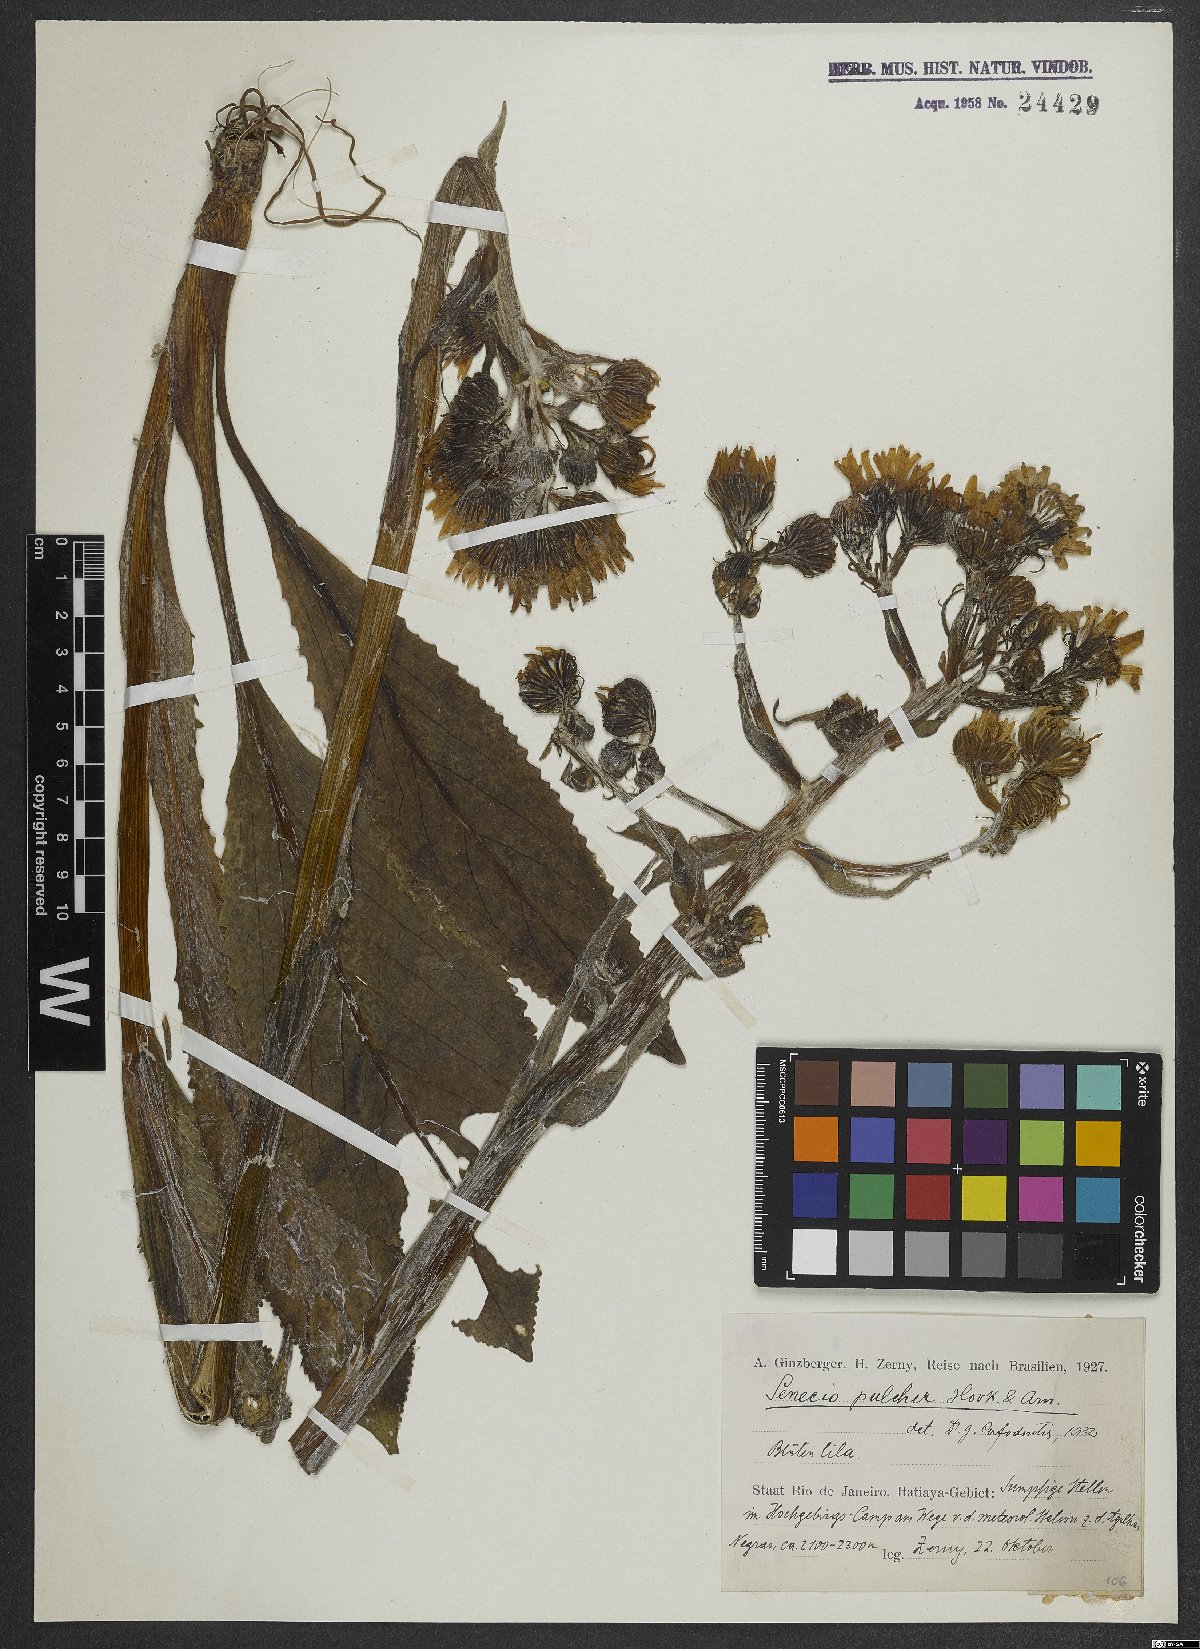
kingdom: Plantae
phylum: Tracheophyta
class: Magnoliopsida
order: Asterales
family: Asteraceae
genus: Senecio
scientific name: Senecio pulcher
